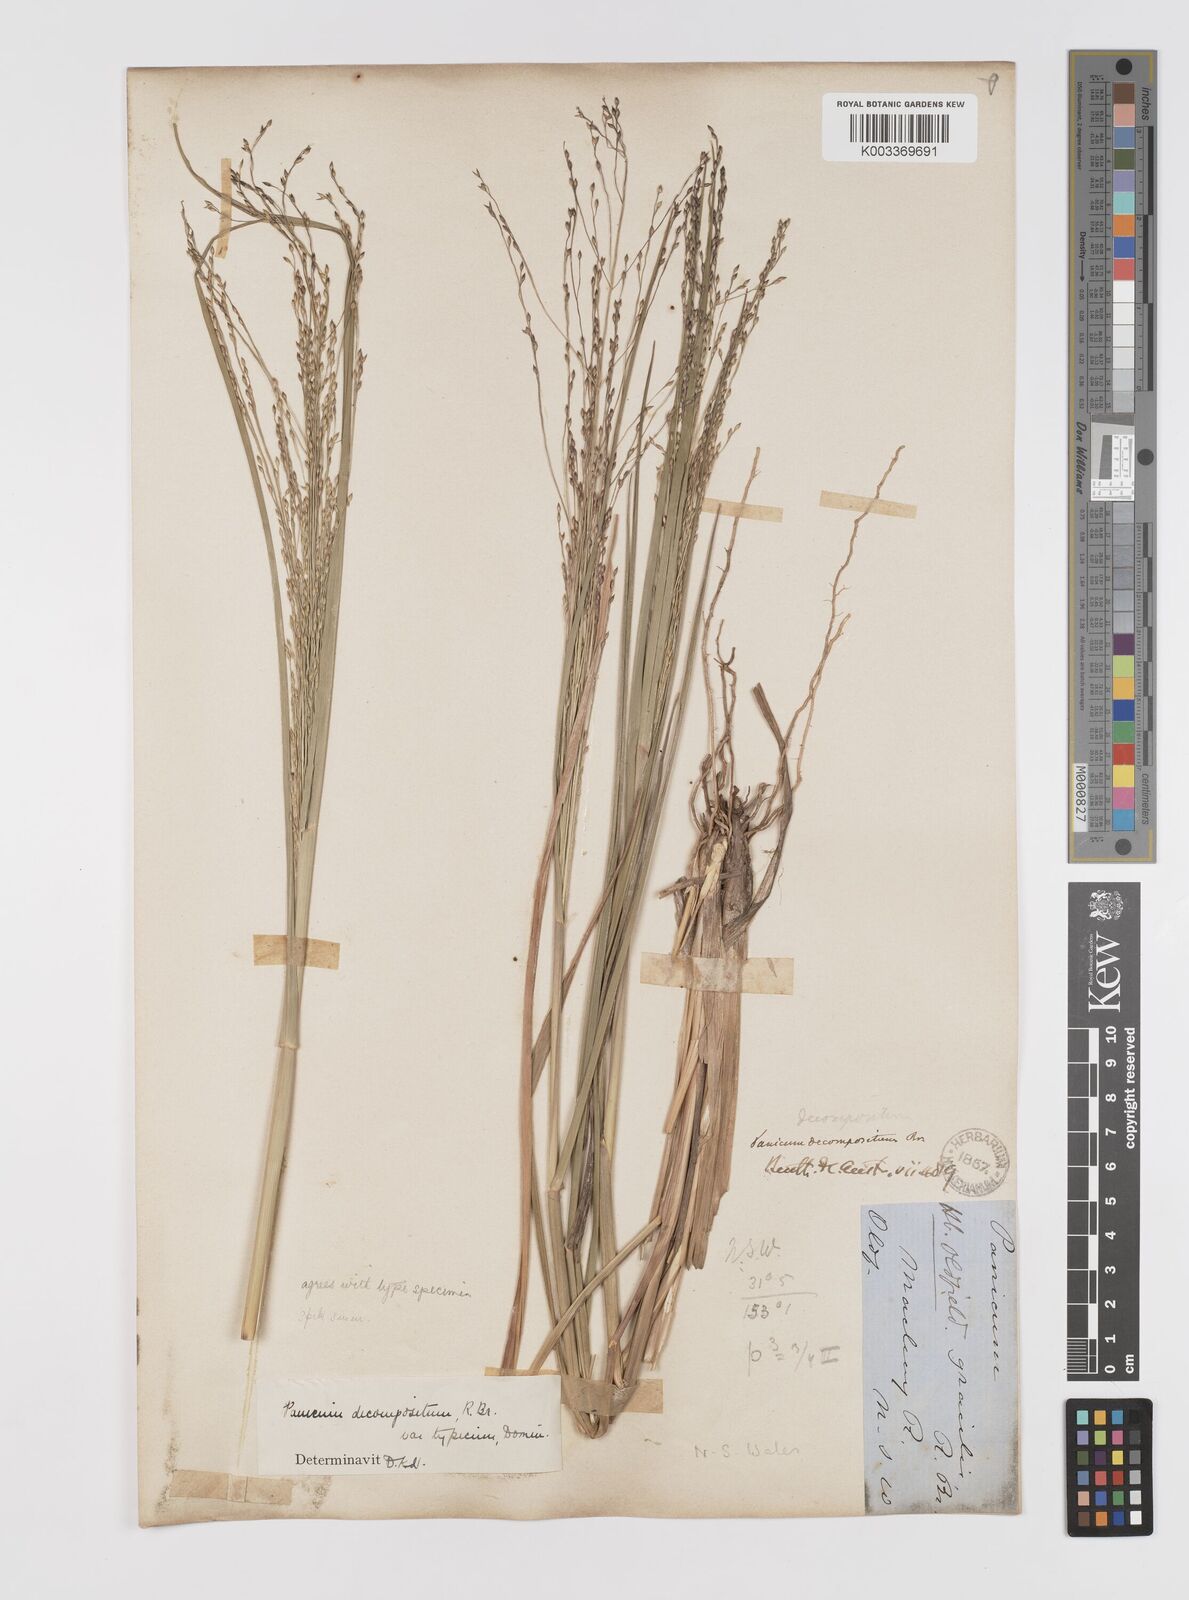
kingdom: Plantae
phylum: Tracheophyta
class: Liliopsida
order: Poales
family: Poaceae
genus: Panicum
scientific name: Panicum decompositum
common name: Australian millet
